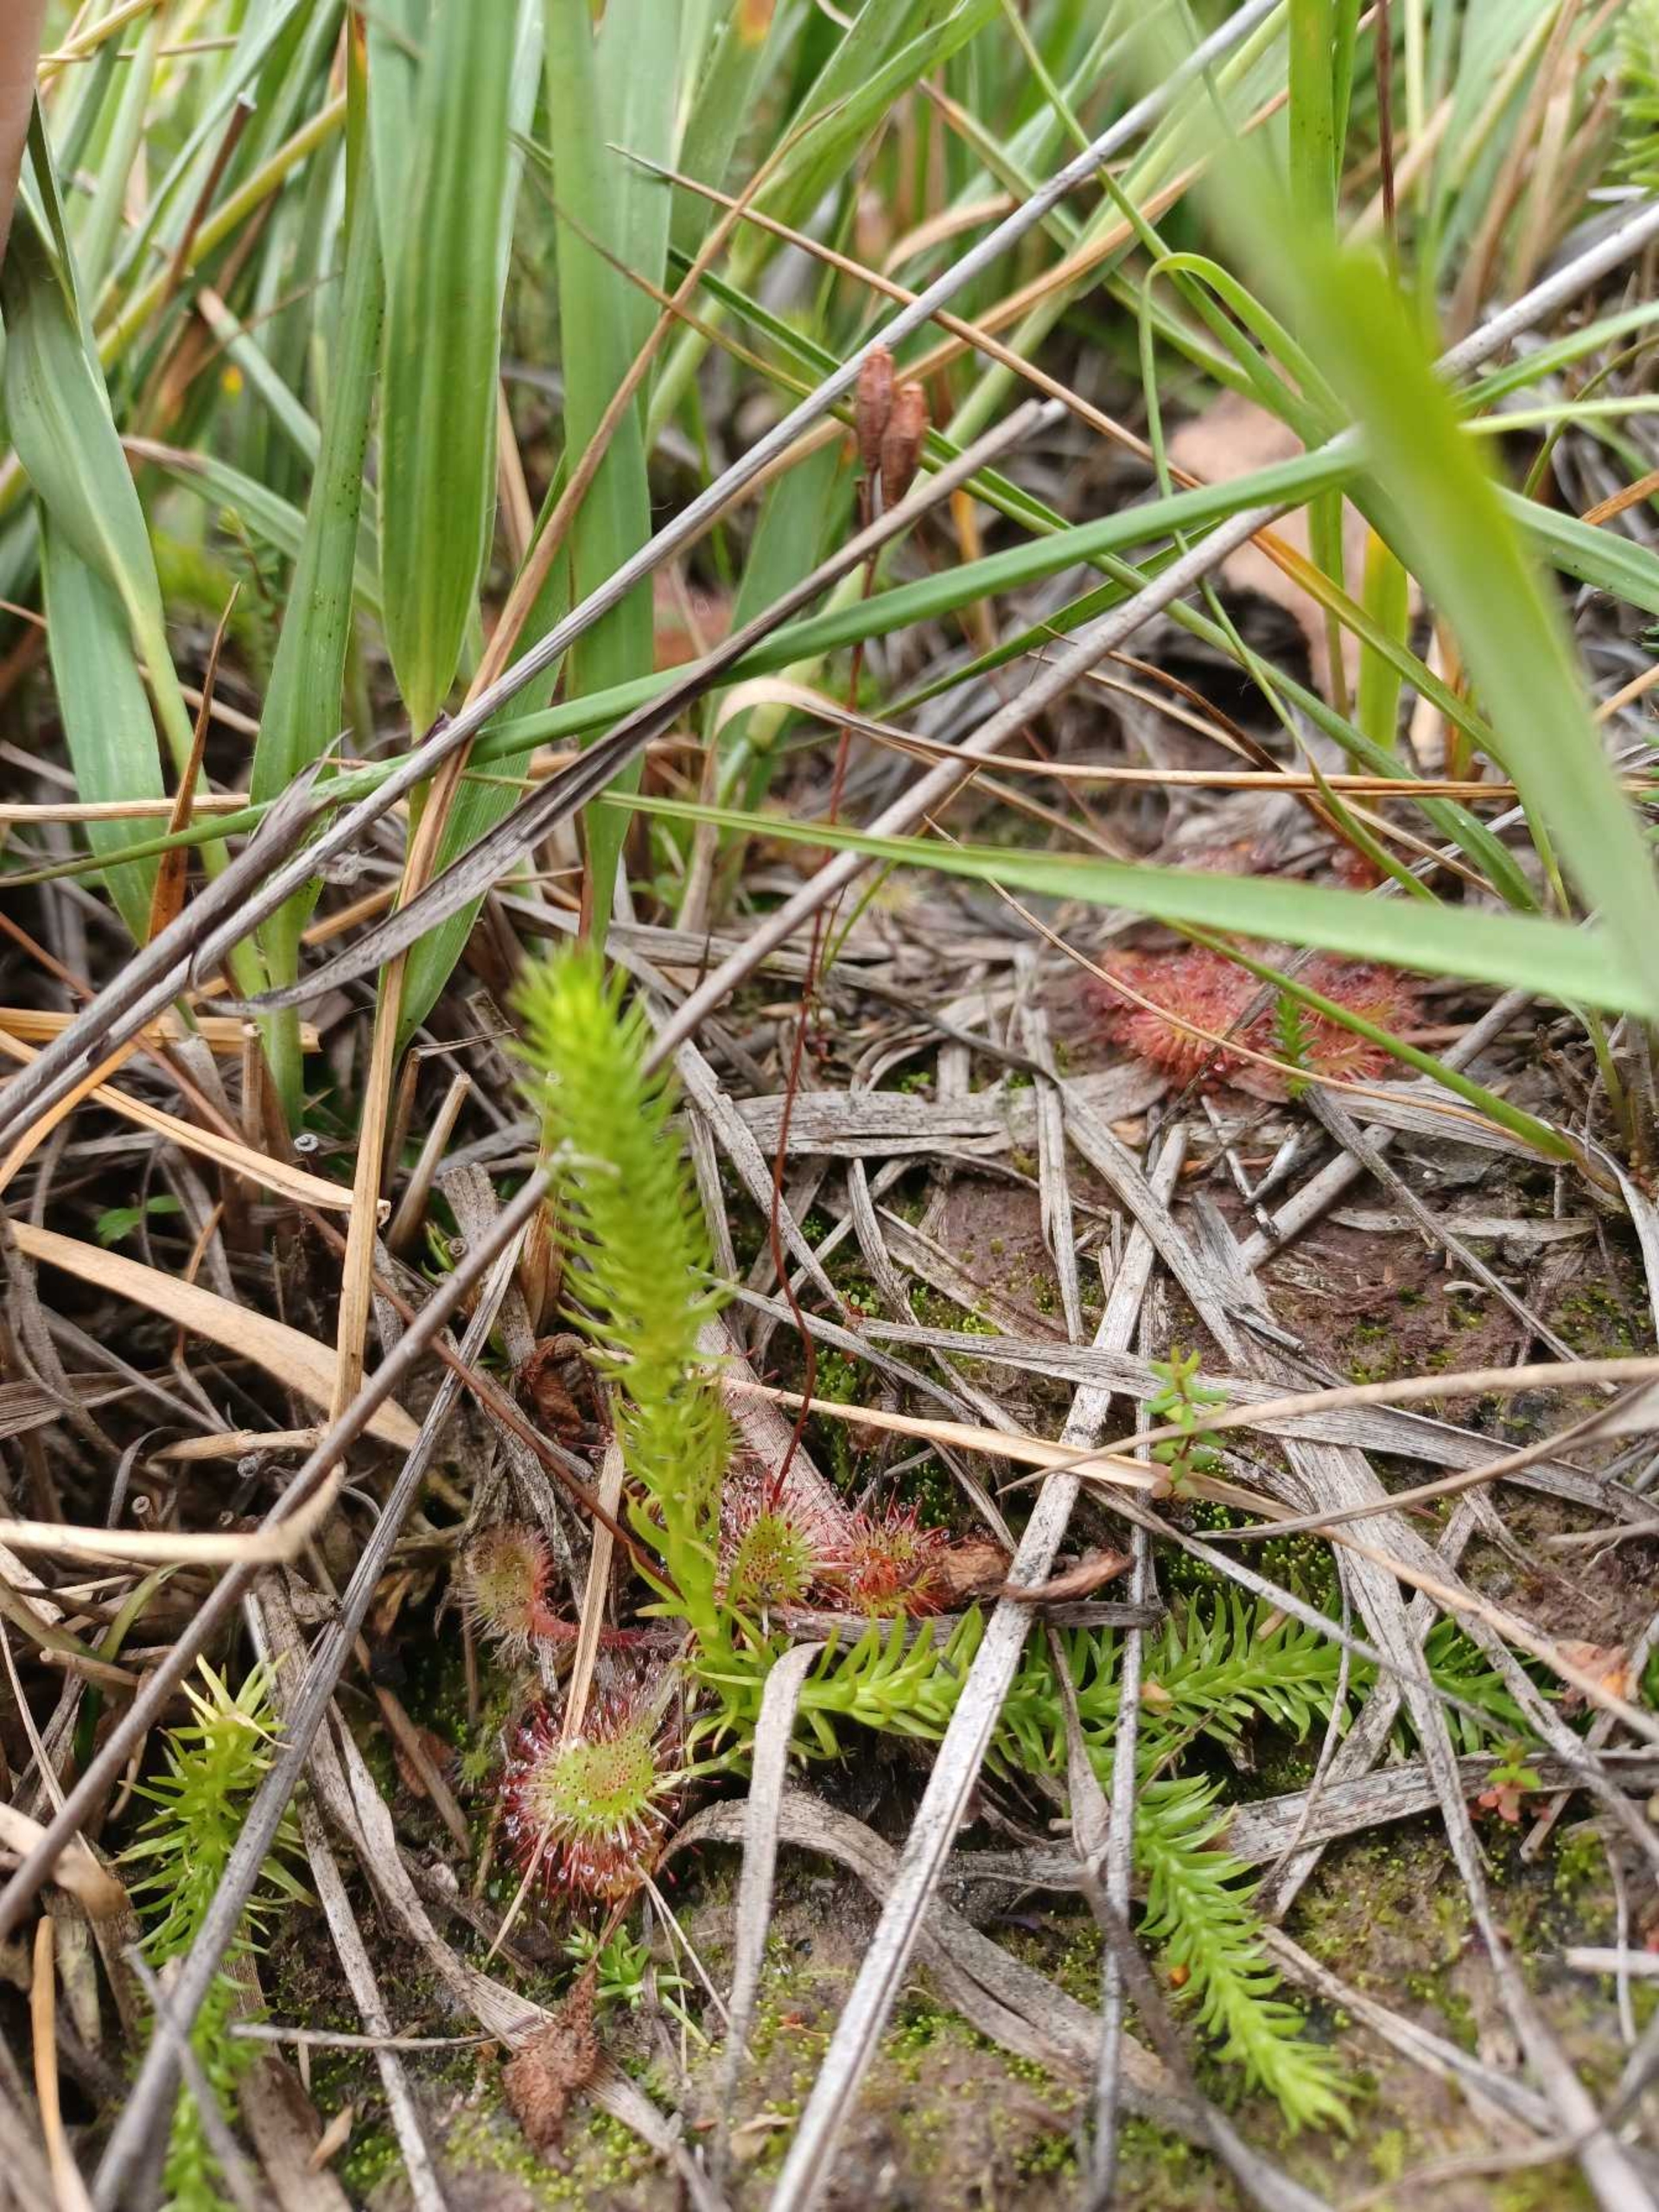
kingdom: Plantae
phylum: Tracheophyta
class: Lycopodiopsida
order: Lycopodiales
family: Lycopodiaceae
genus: Lycopodiella
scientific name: Lycopodiella inundata
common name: Liden ulvefod
